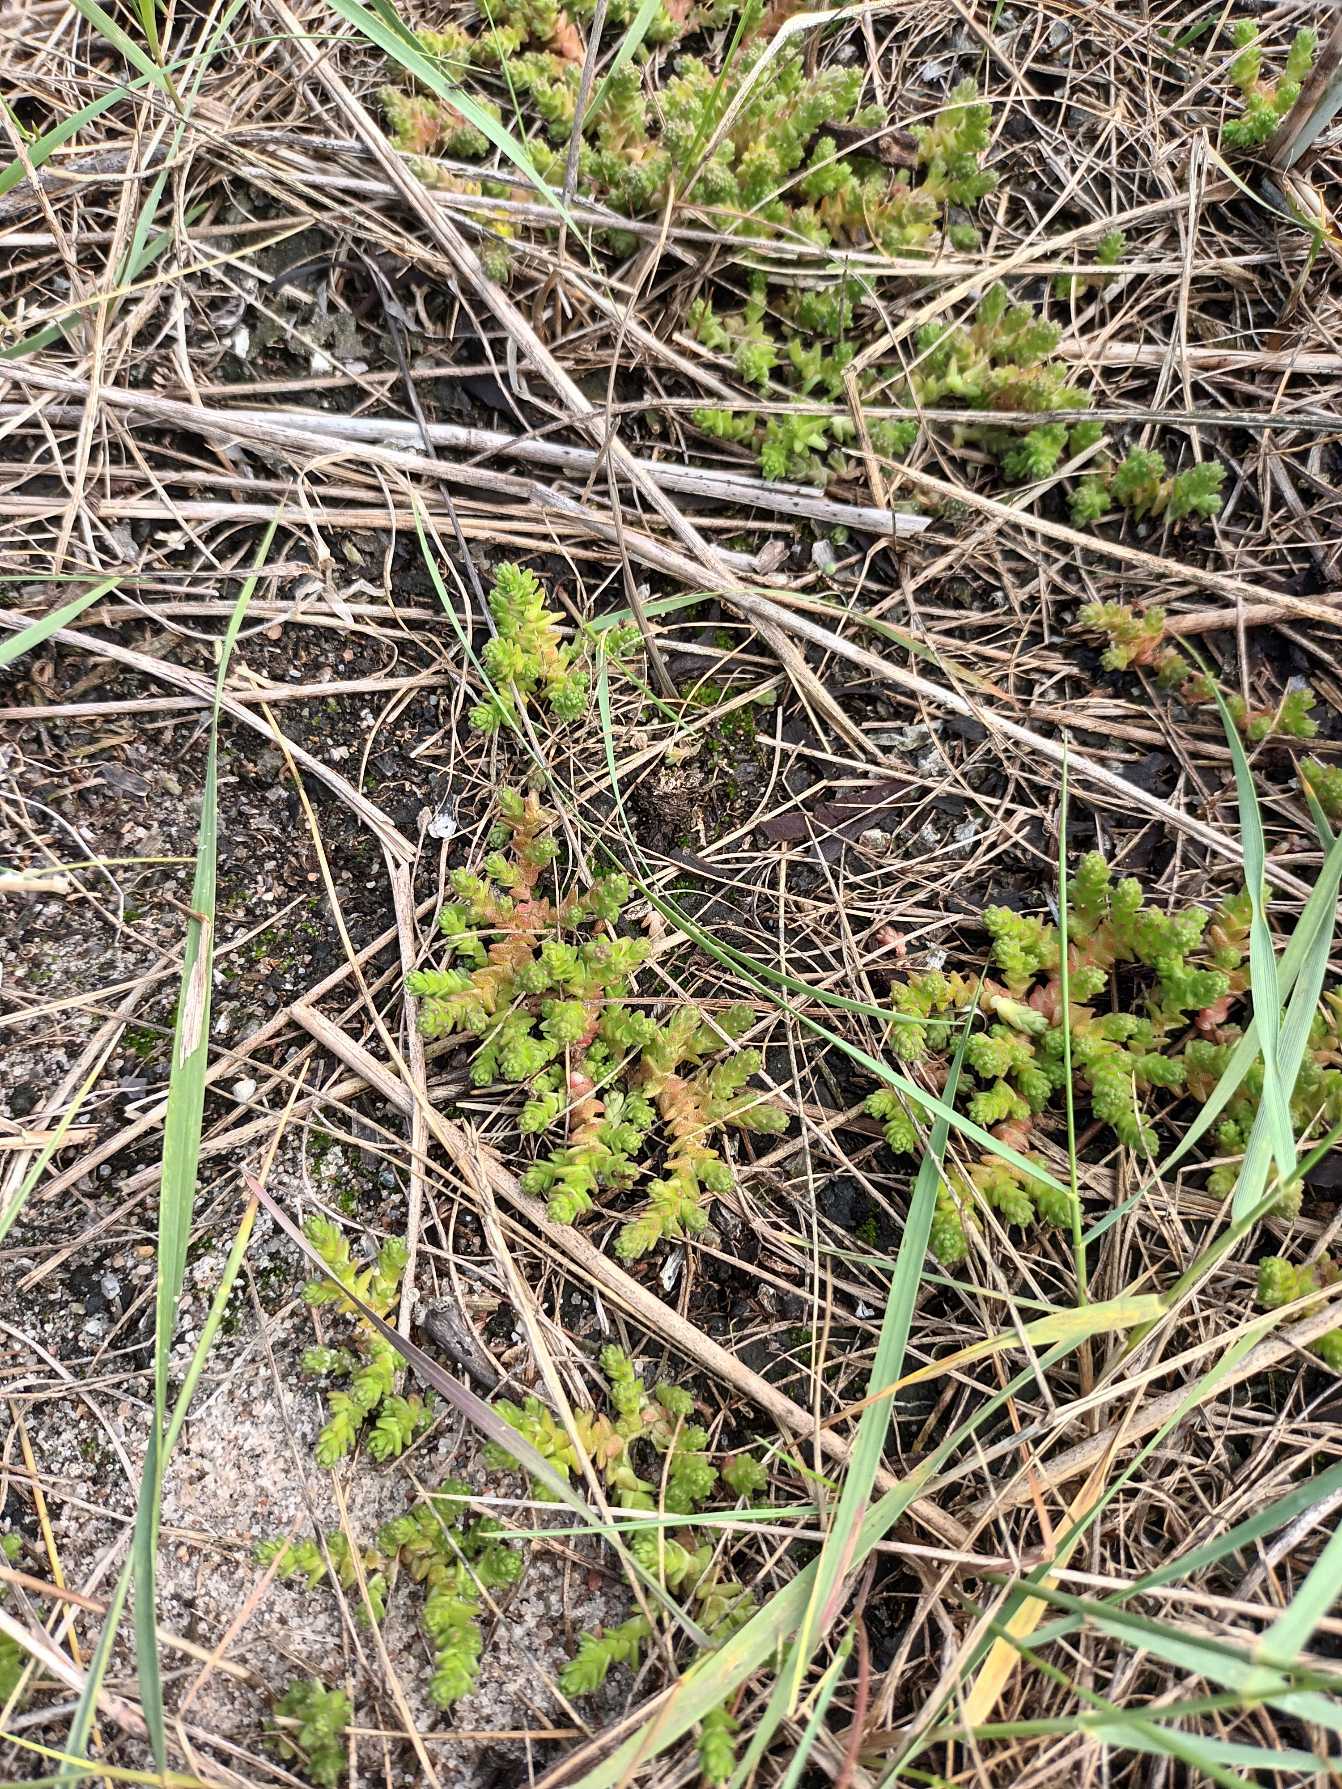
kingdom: Plantae
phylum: Tracheophyta
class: Magnoliopsida
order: Saxifragales
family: Crassulaceae
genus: Sedum
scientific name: Sedum acre
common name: Bidende stenurt
